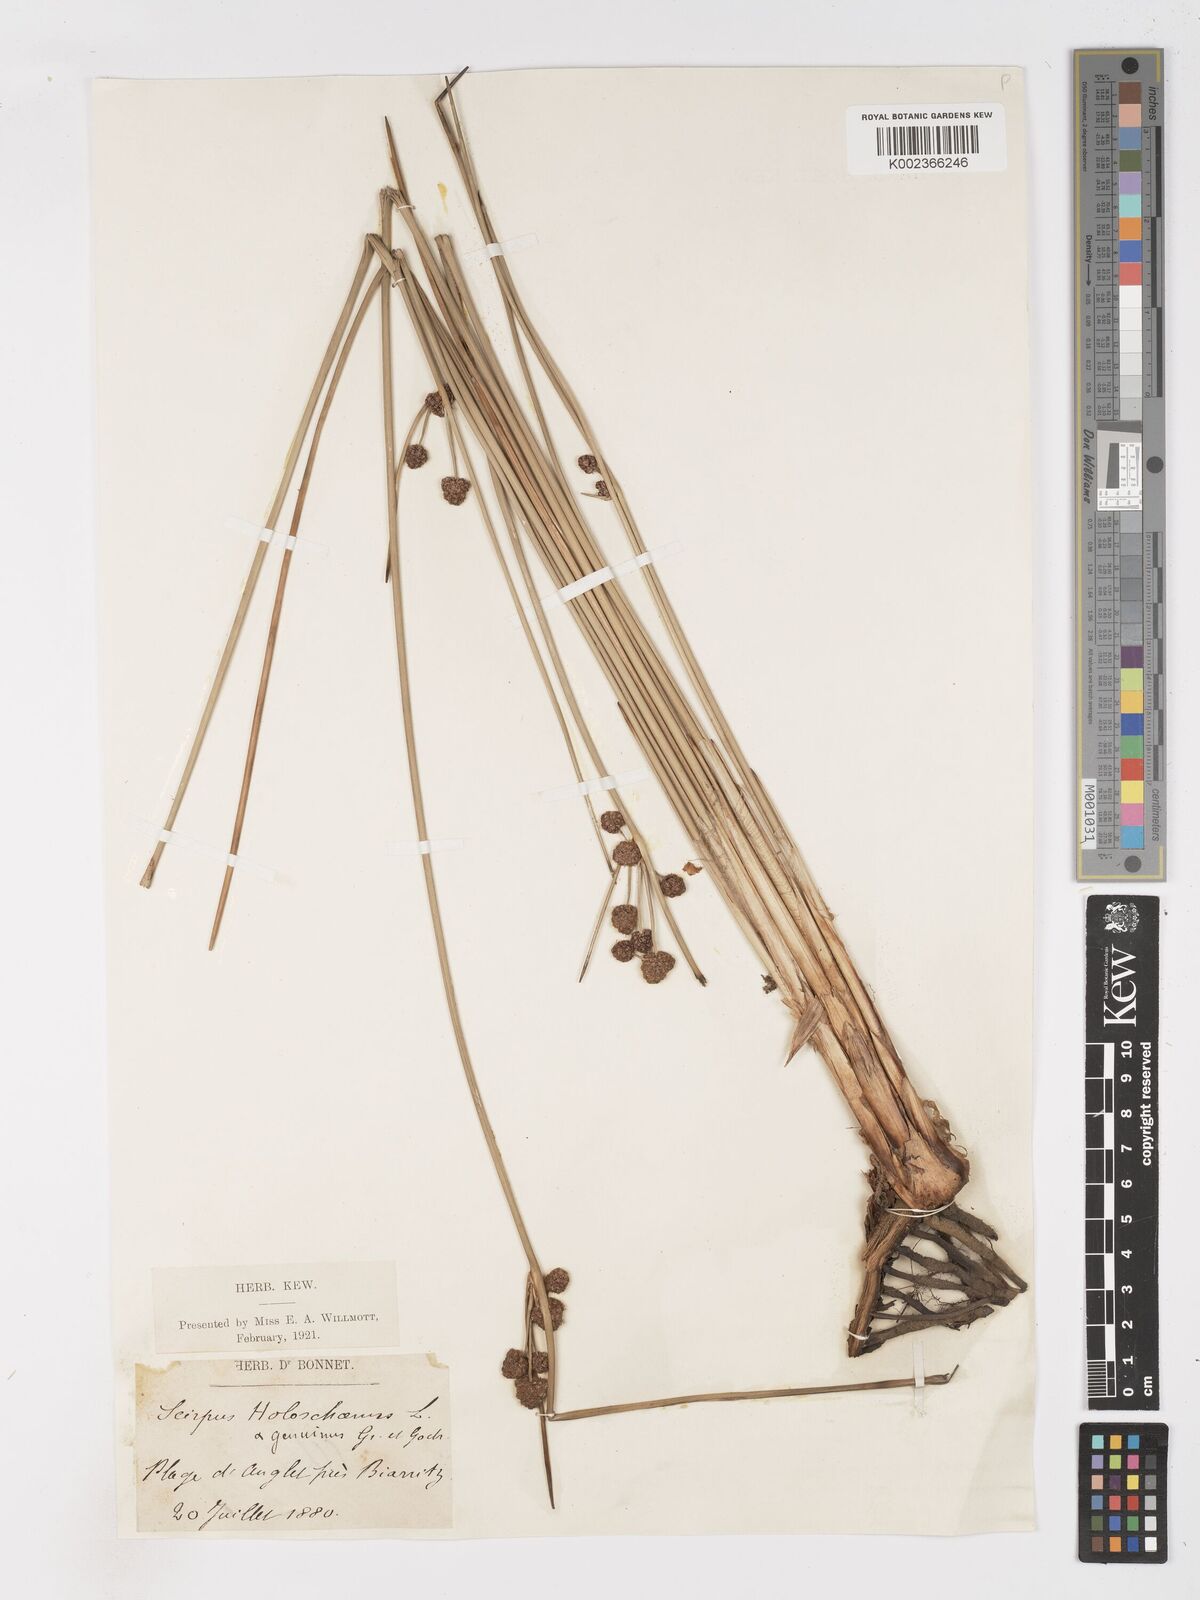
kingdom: Plantae
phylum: Tracheophyta
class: Liliopsida
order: Poales
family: Cyperaceae
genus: Scirpoides
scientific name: Scirpoides holoschoenus
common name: Round-headed club-rush
